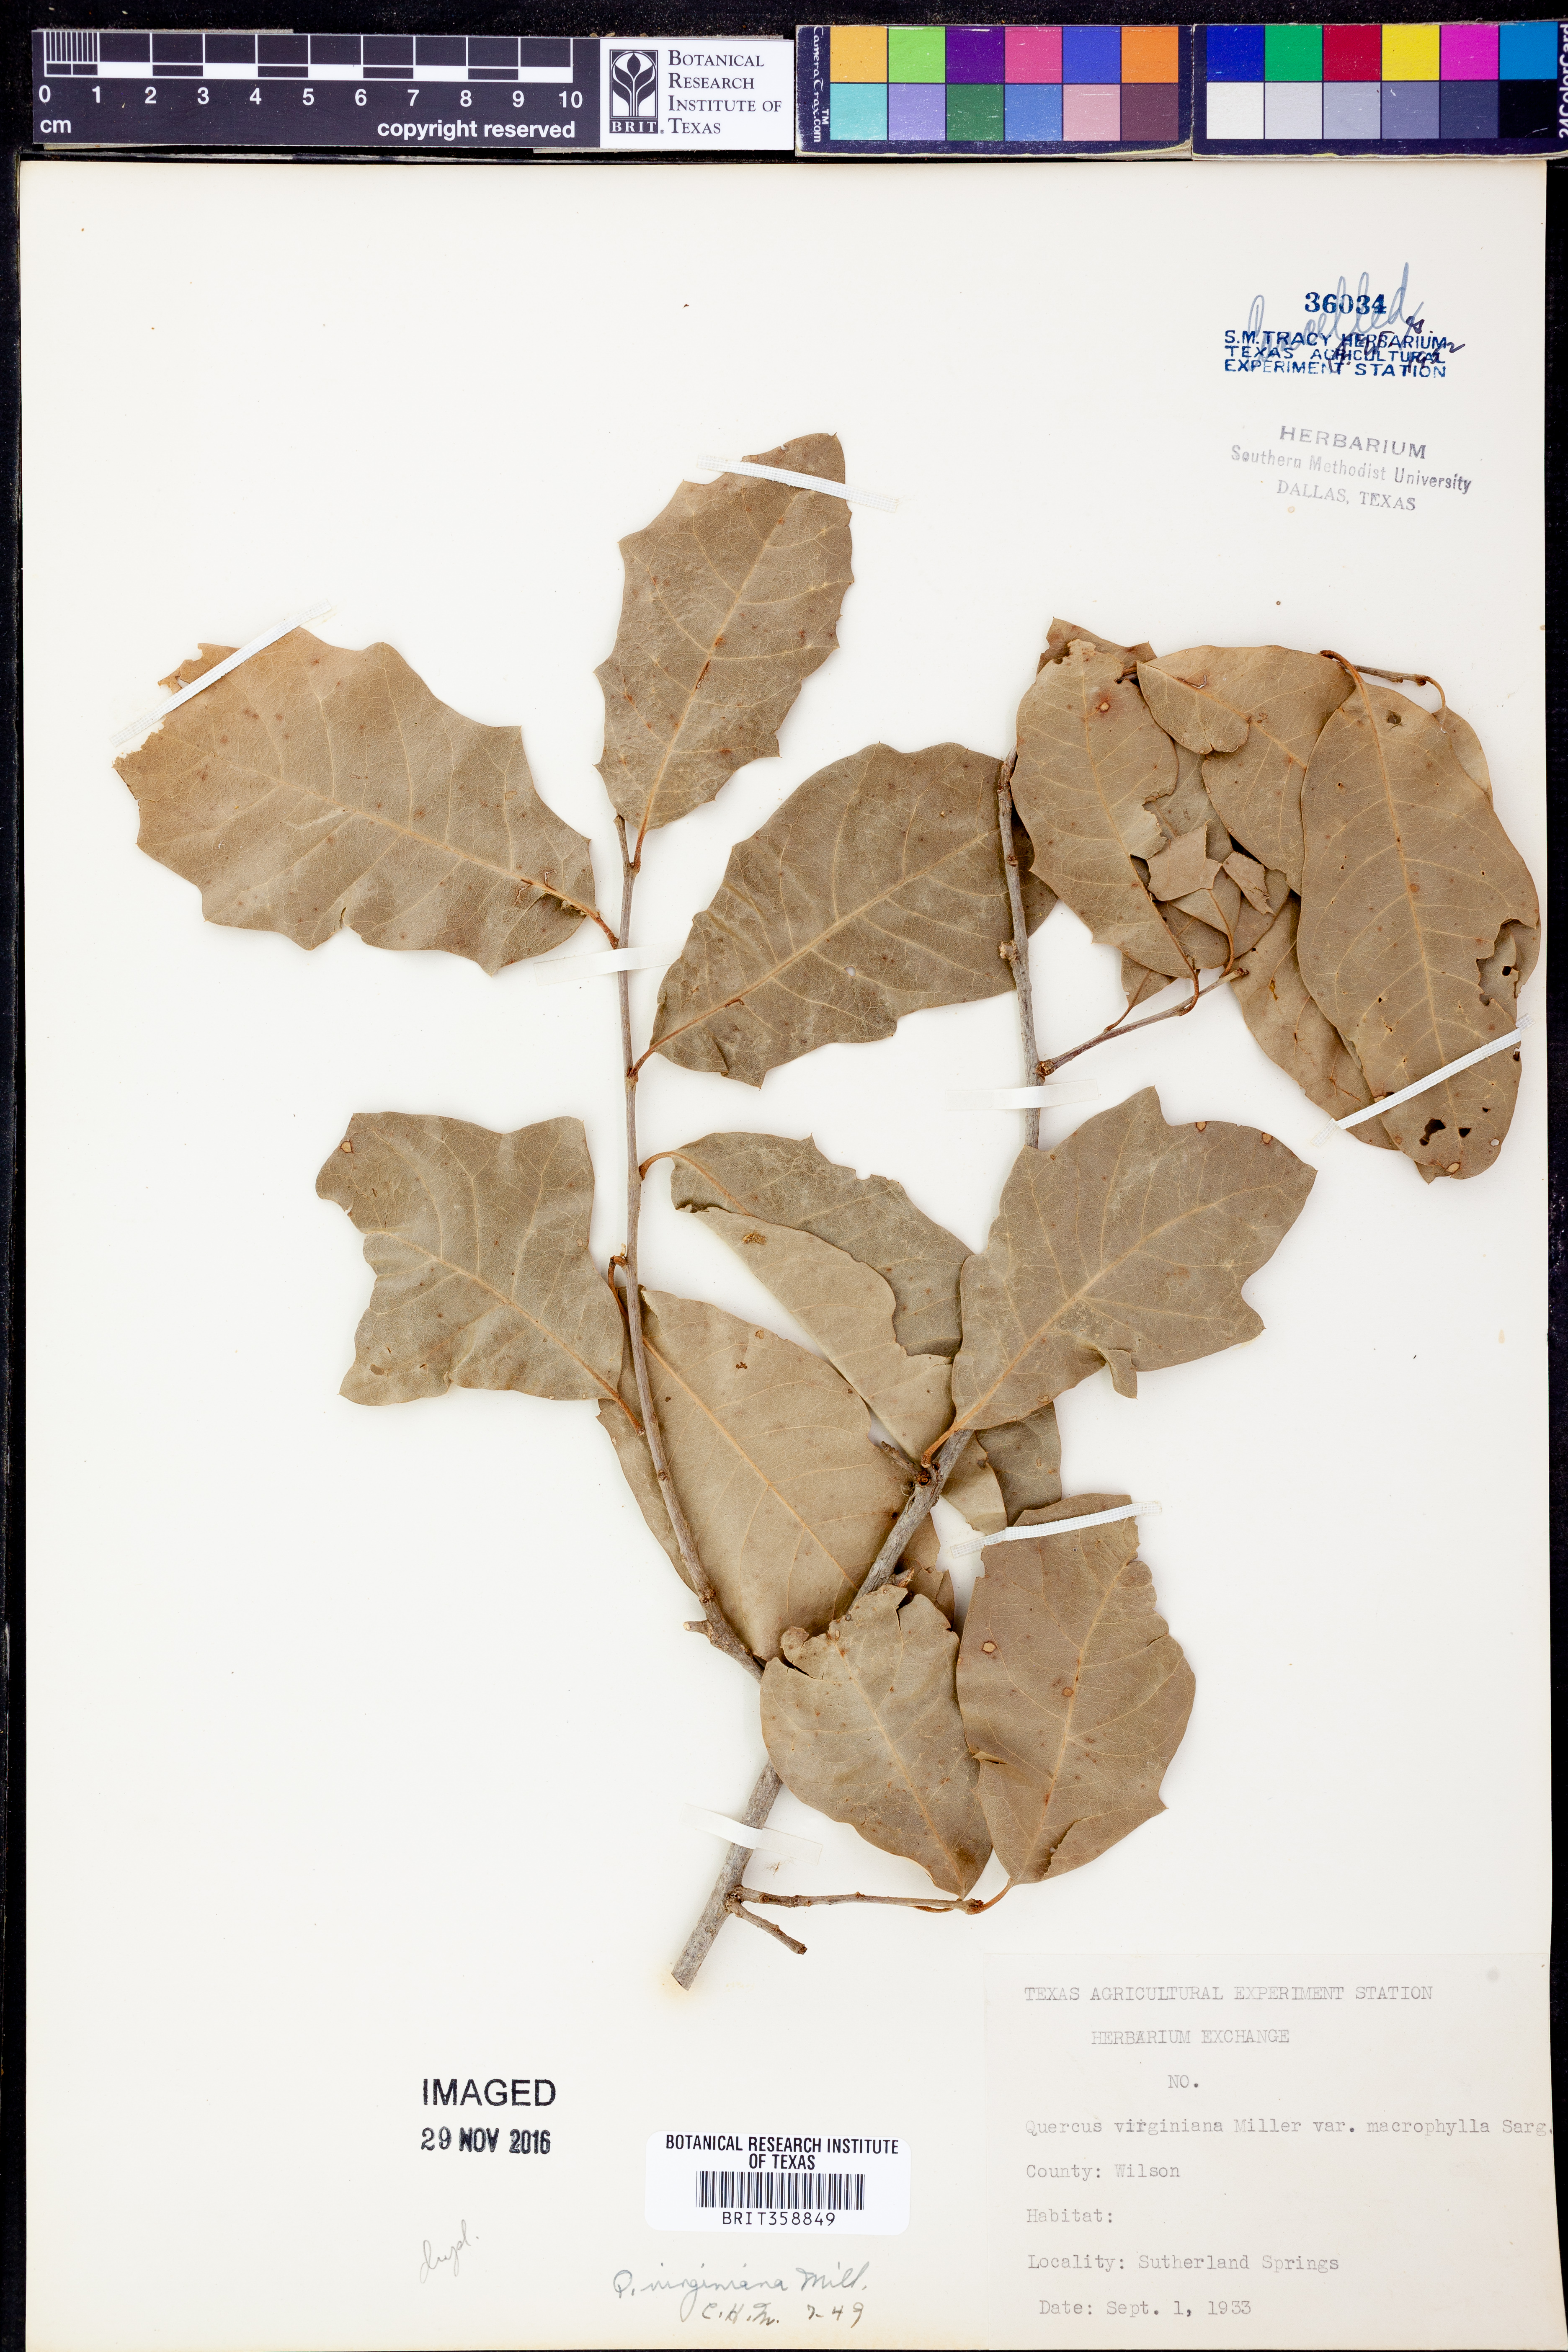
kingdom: Plantae
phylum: Tracheophyta
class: Magnoliopsida
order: Fagales
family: Fagaceae
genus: Quercus
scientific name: Quercus virginiana
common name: Southern live oak
